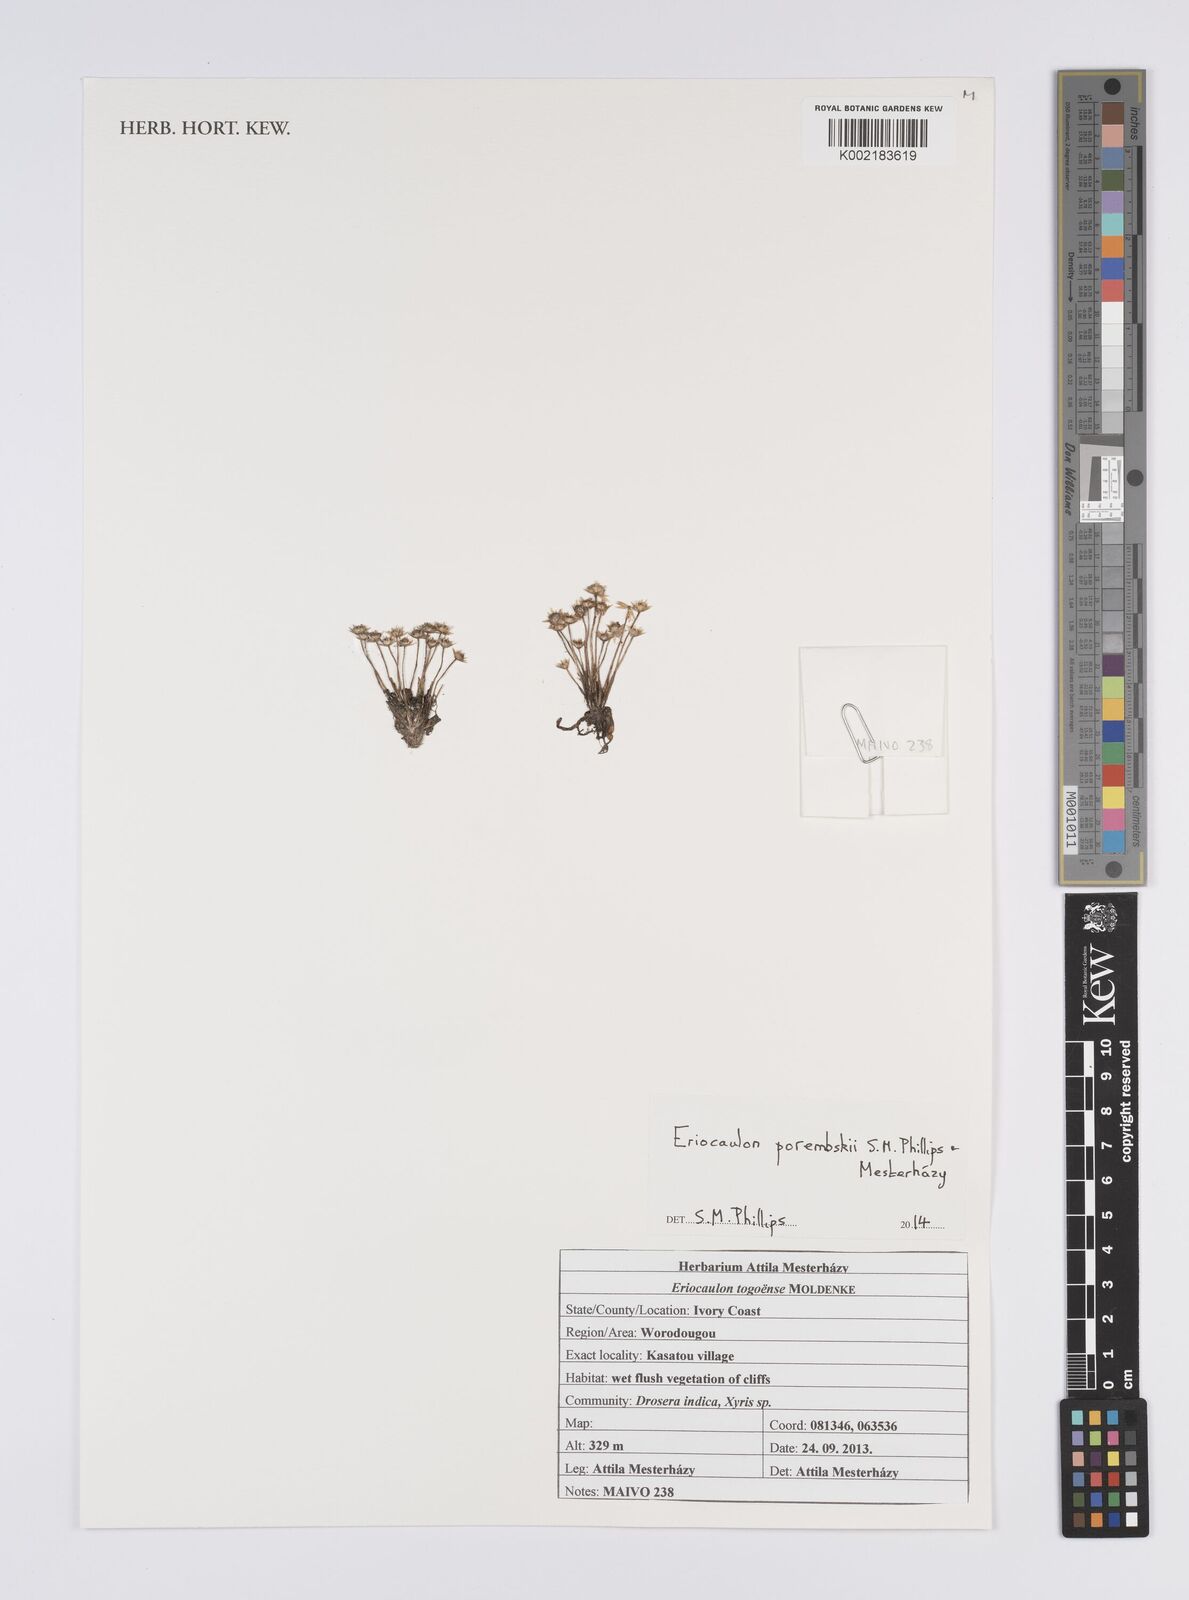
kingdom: Plantae
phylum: Tracheophyta
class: Liliopsida
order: Poales
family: Eriocaulaceae
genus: Eriocaulon
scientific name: Eriocaulon porembskii
